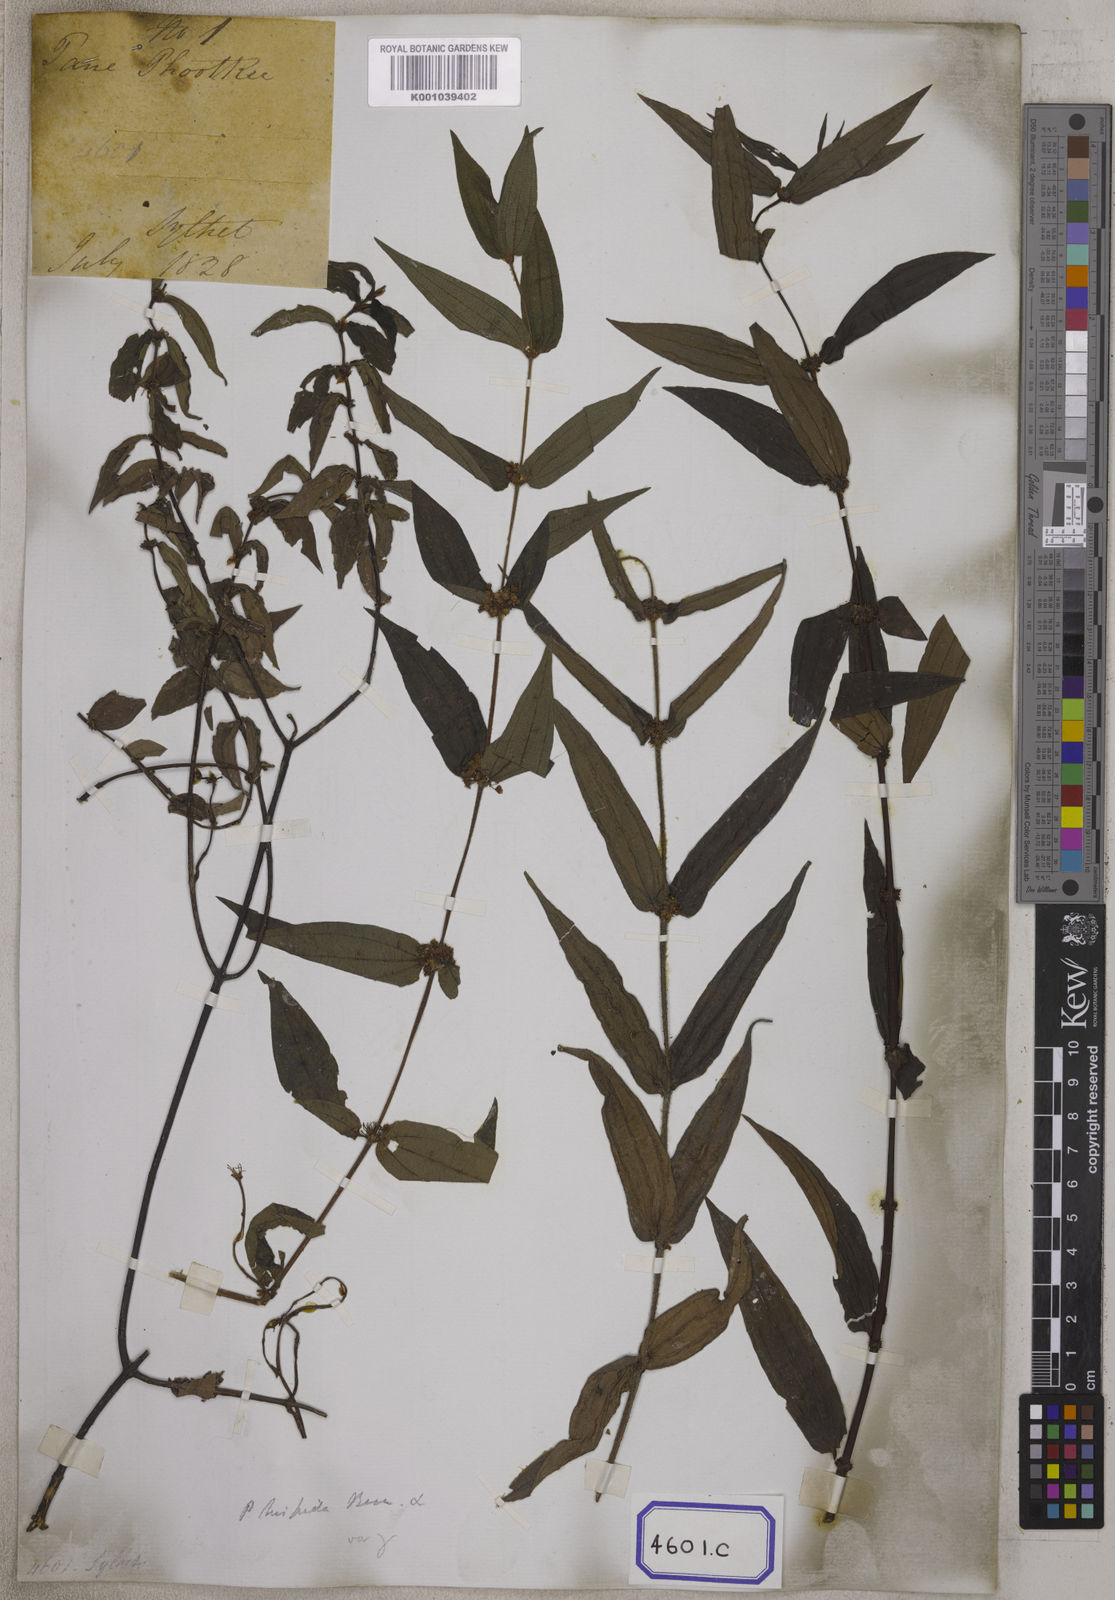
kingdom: Plantae
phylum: Tracheophyta
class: Magnoliopsida
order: Rosales
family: Urticaceae
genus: Gonostegia
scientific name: Gonostegia triandra
